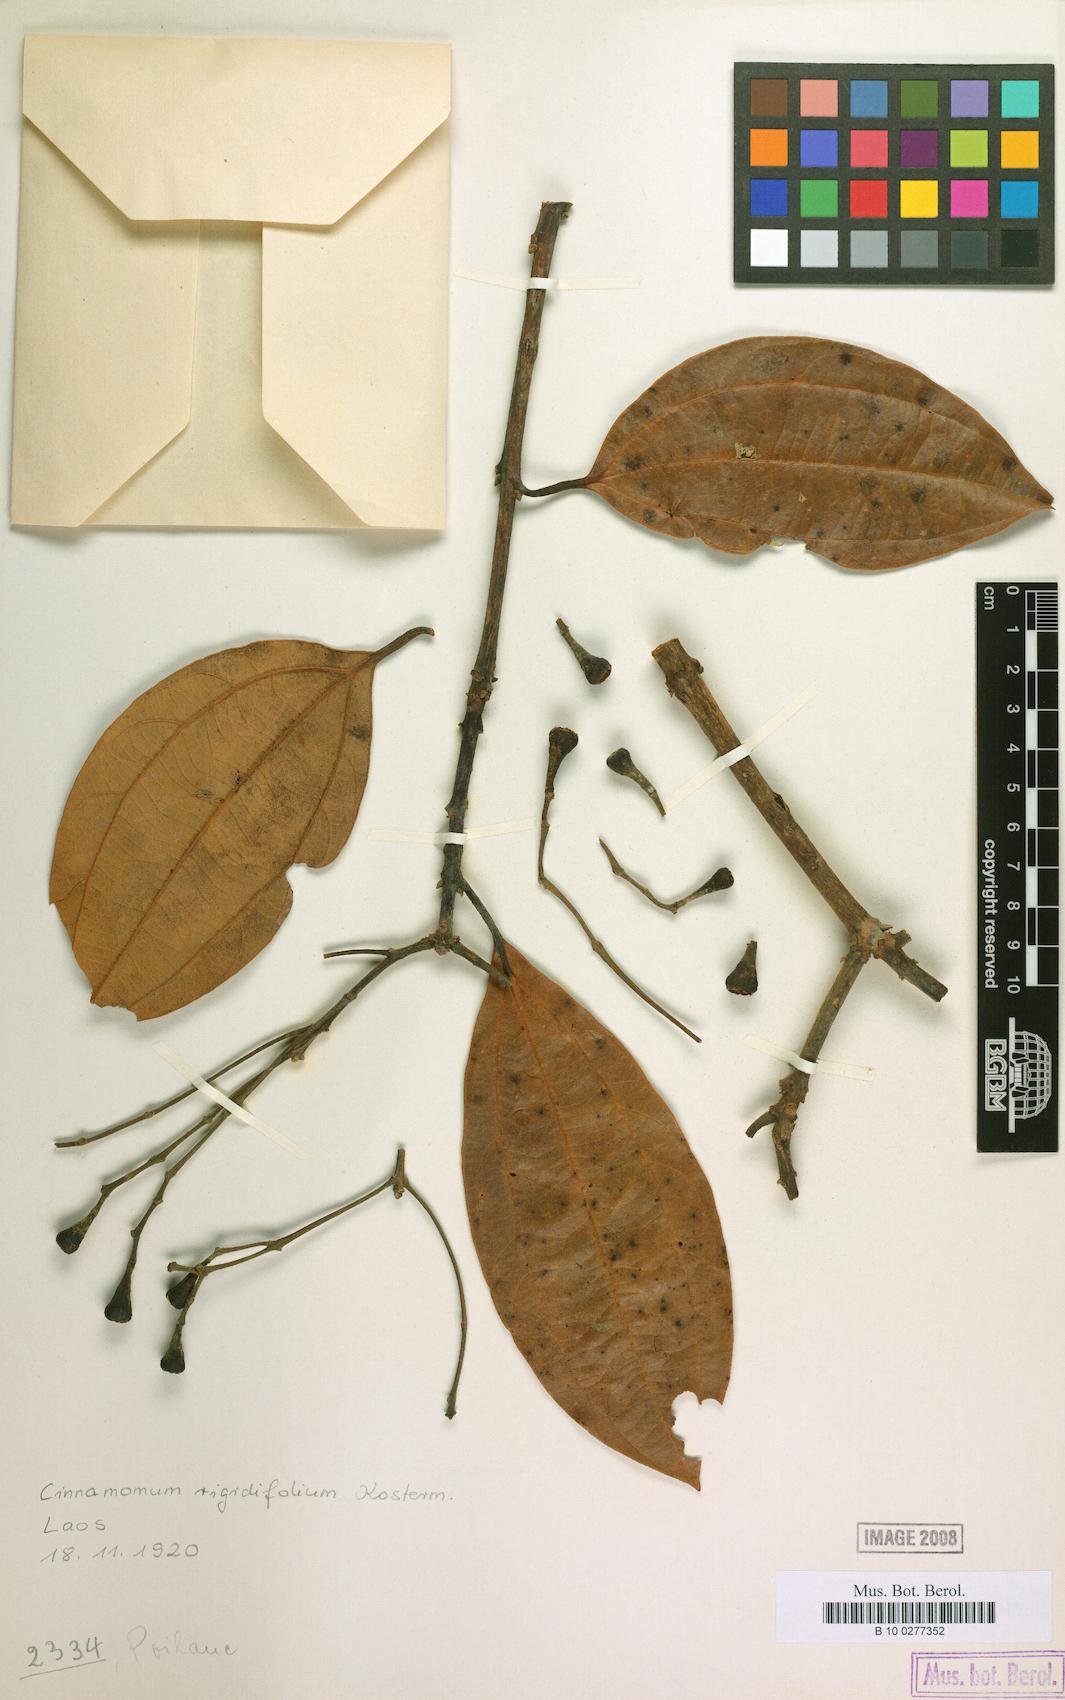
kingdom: Plantae
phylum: Tracheophyta
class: Magnoliopsida
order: Laurales
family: Lauraceae
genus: Cinnamomum
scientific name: Cinnamomum rigidifolium
